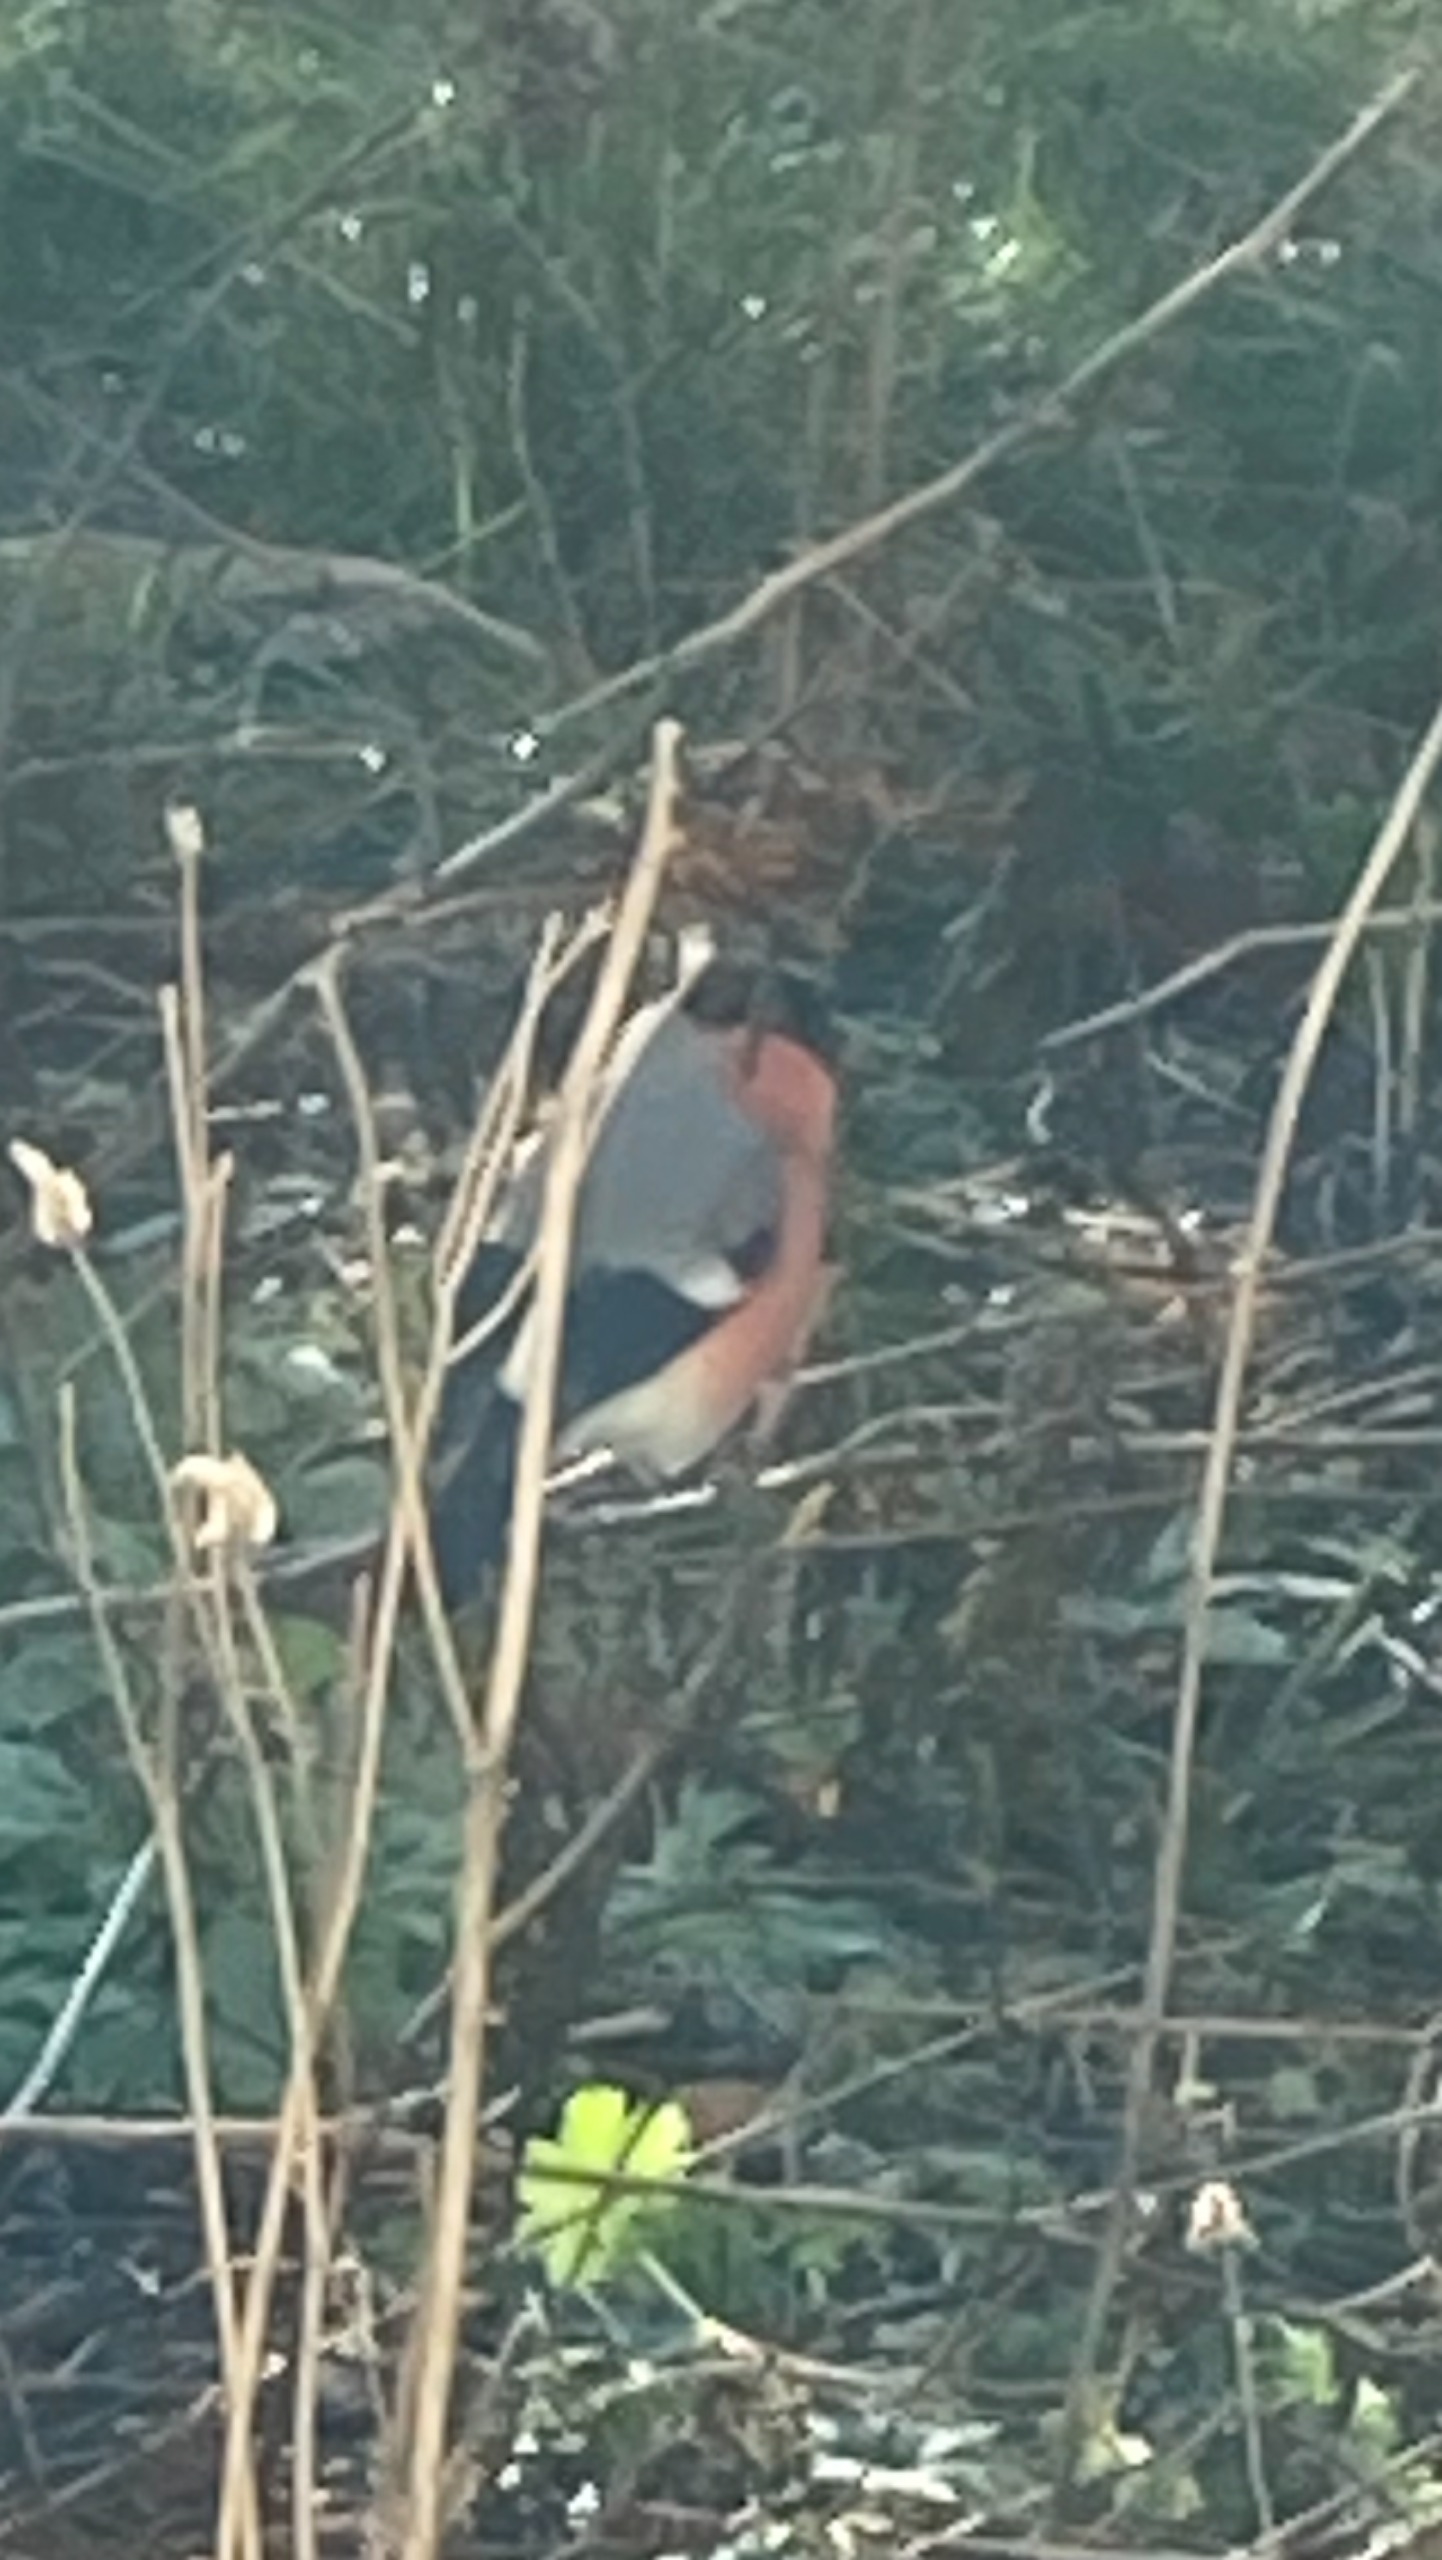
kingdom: Animalia
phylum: Chordata
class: Aves
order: Passeriformes
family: Fringillidae
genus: Pyrrhula
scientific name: Pyrrhula pyrrhula
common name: Dompap
